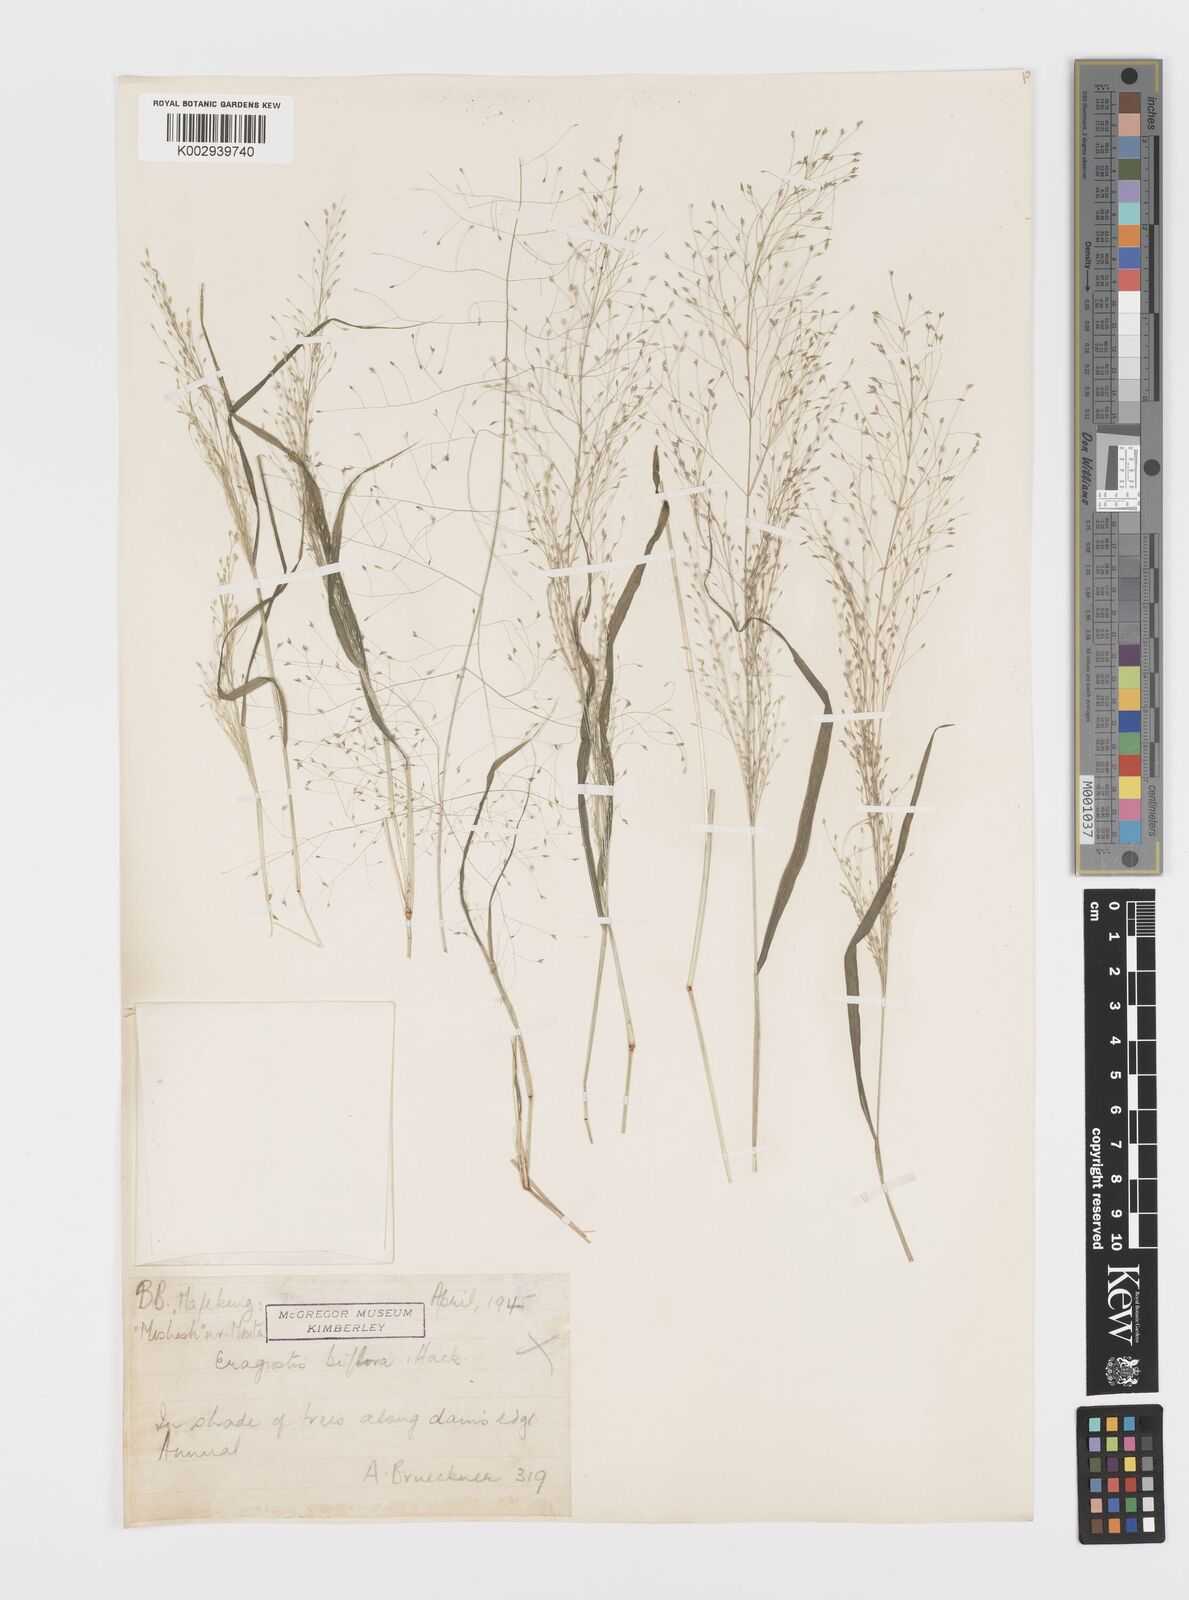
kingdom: Plantae
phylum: Tracheophyta
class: Liliopsida
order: Poales
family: Poaceae
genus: Eragrostis
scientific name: Eragrostis biflora
